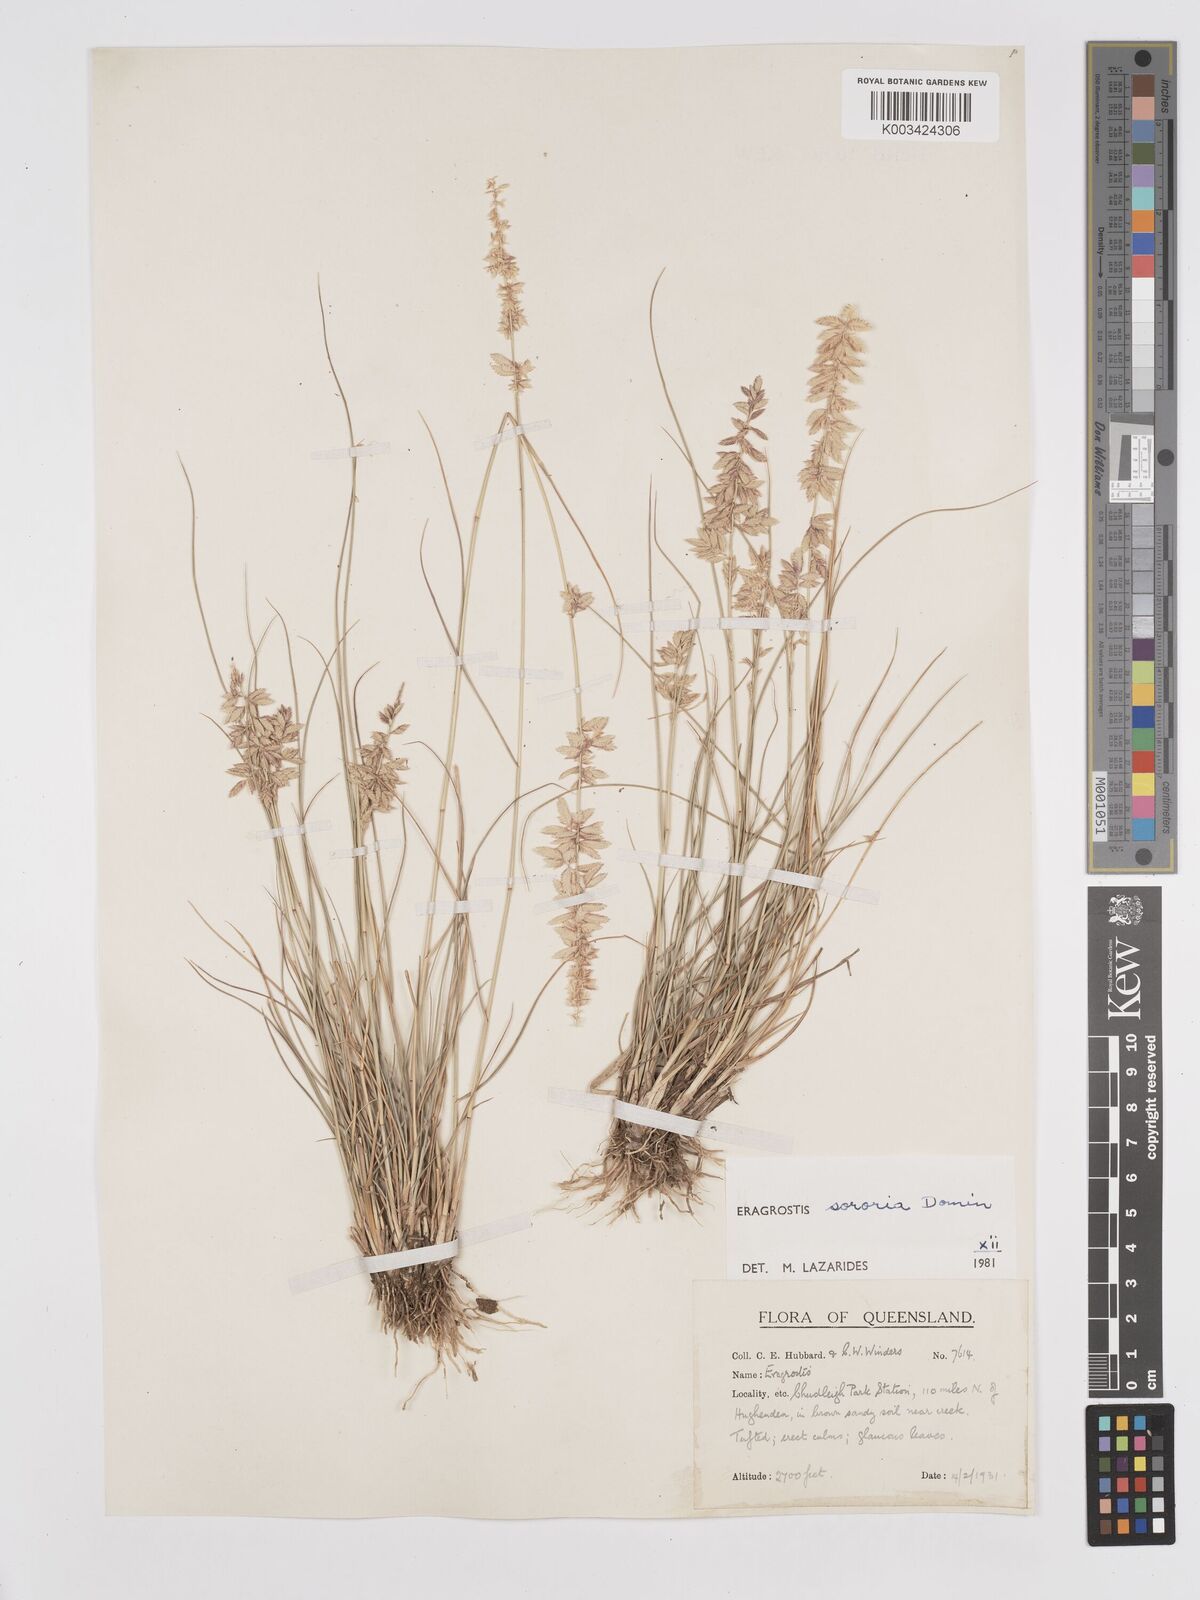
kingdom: Plantae
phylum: Tracheophyta
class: Liliopsida
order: Poales
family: Poaceae
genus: Eragrostis
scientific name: Eragrostis sororia
